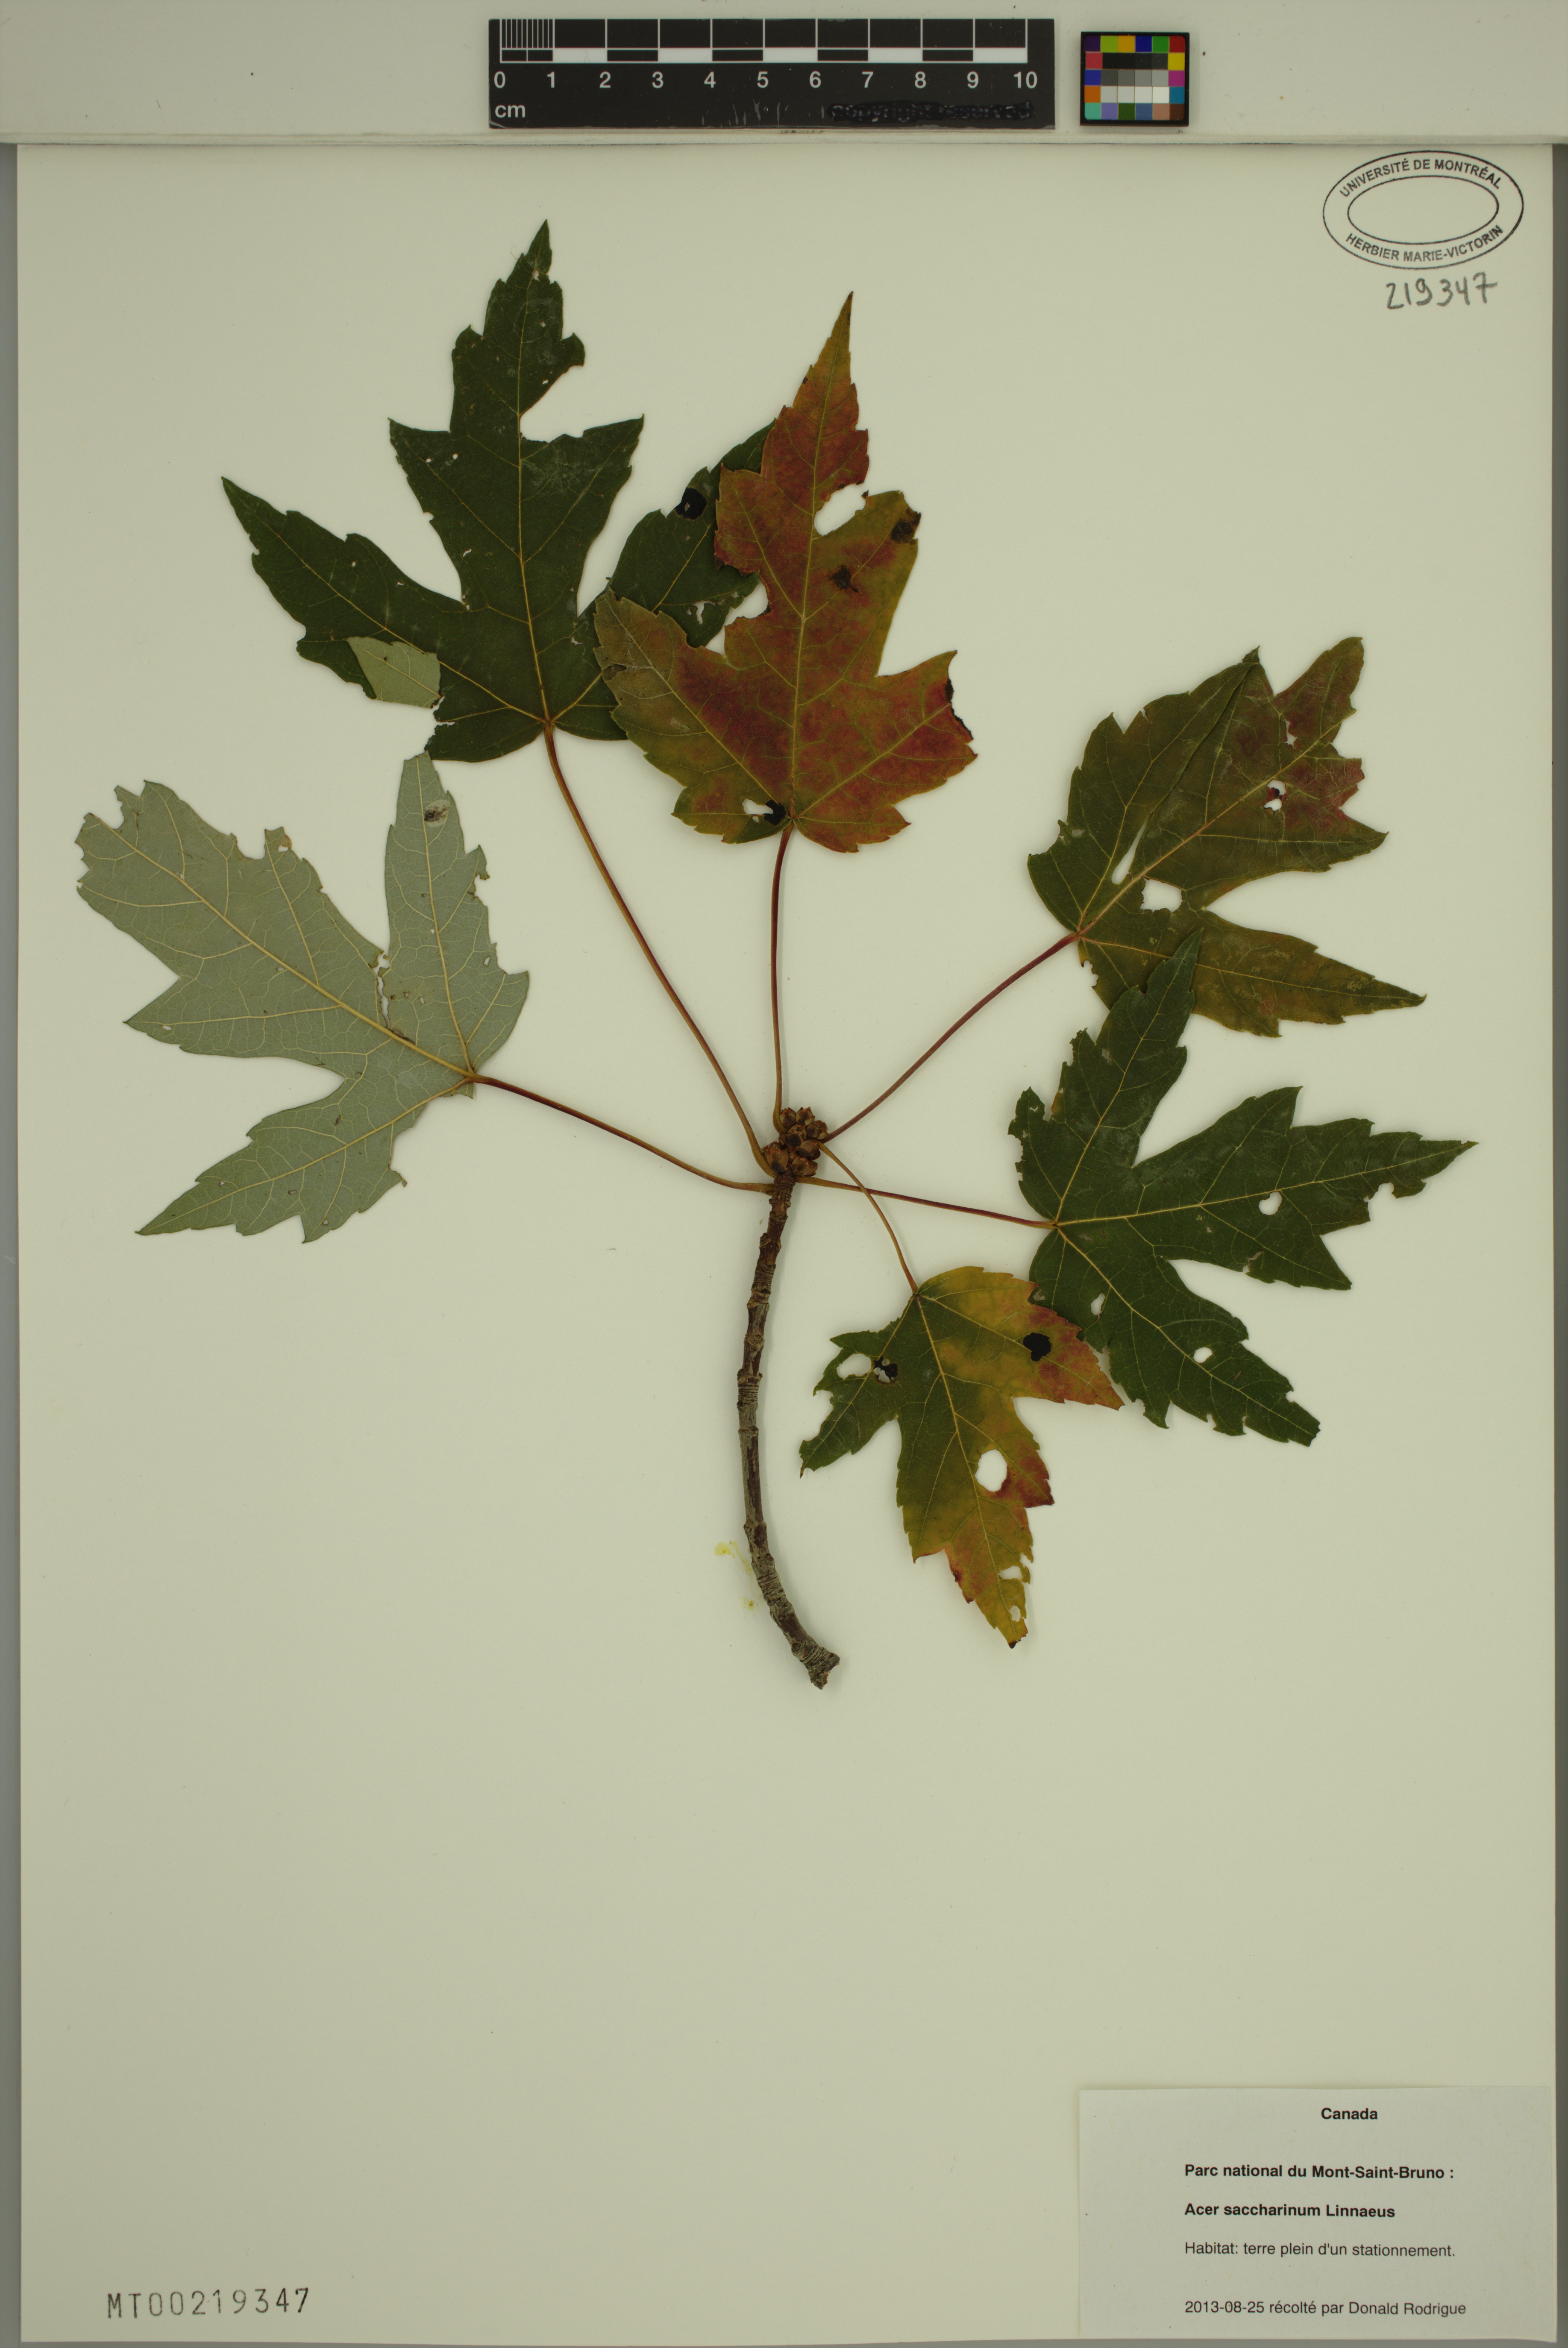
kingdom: Plantae
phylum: Tracheophyta
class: Magnoliopsida
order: Sapindales
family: Sapindaceae
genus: Acer
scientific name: Acer saccharinum
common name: Silver maple
